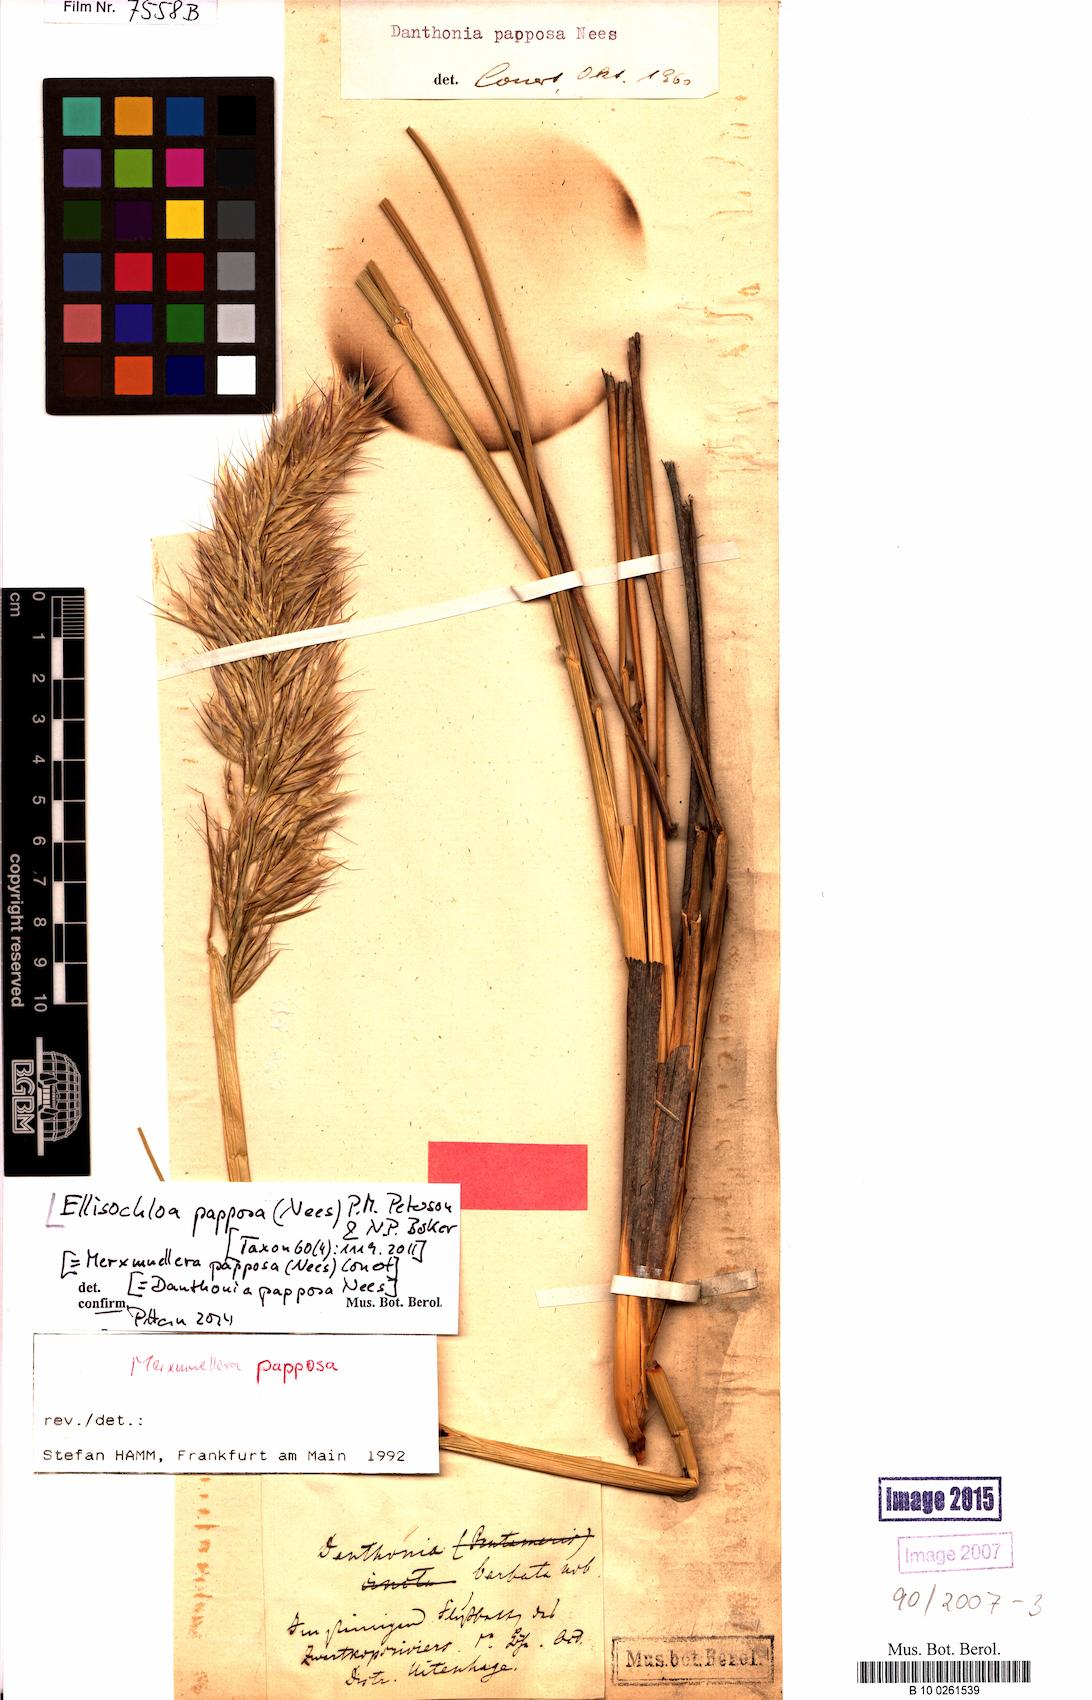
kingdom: Plantae
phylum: Tracheophyta
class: Liliopsida
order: Poales
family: Poaceae
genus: Ellisochloa
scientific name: Ellisochloa papposa
